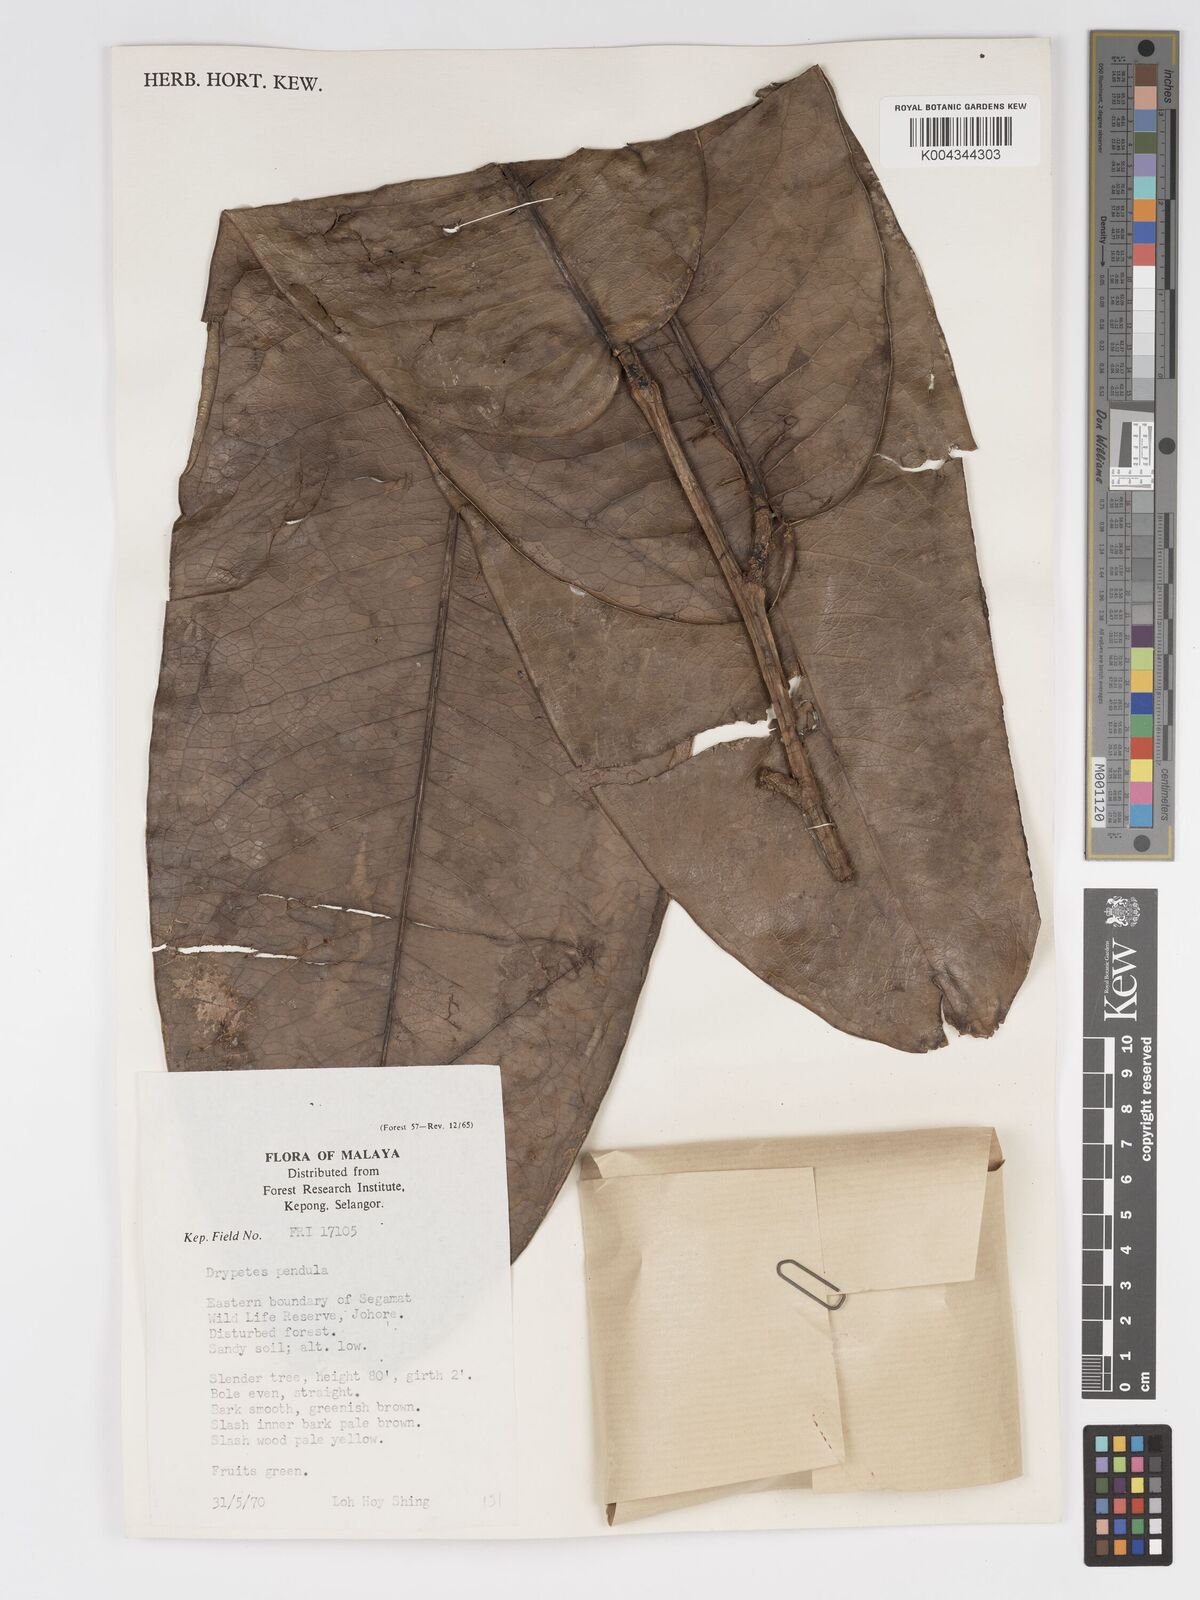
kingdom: Plantae
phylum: Tracheophyta
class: Magnoliopsida
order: Malpighiales
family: Putranjivaceae
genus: Drypetes
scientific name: Drypetes pendula
